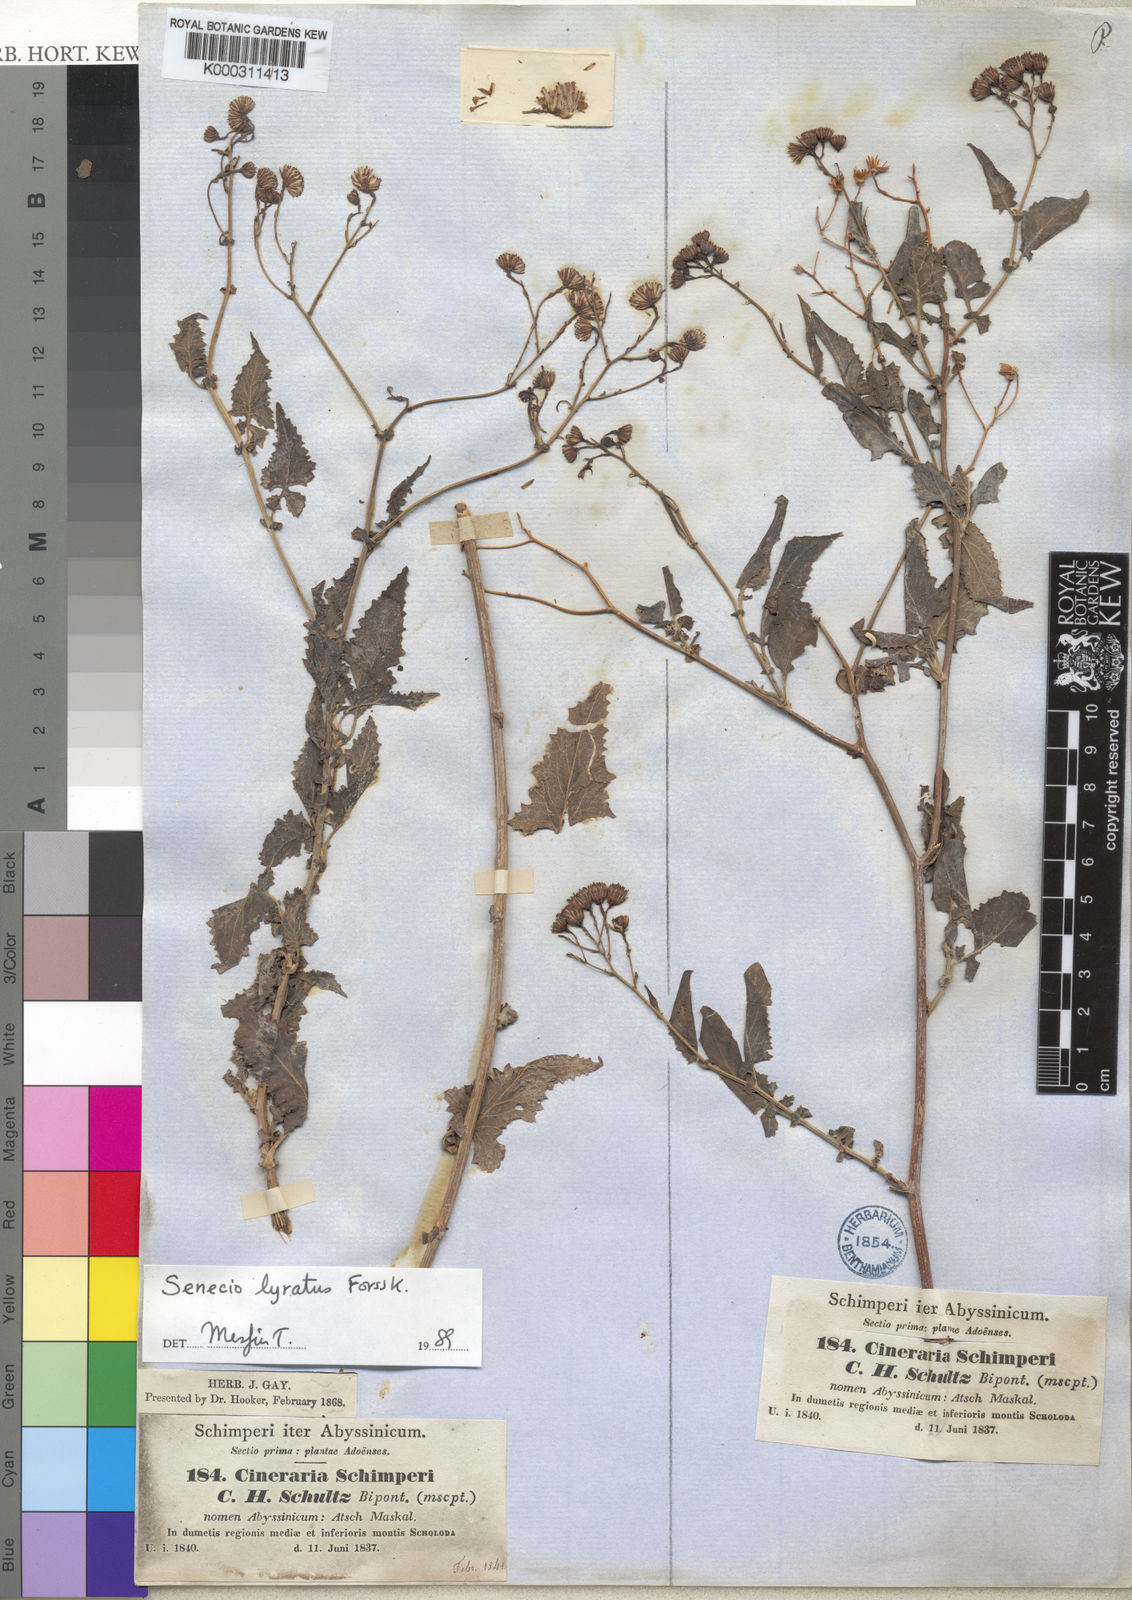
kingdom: Plantae
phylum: Tracheophyta
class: Magnoliopsida
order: Asterales
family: Asteraceae
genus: Senecio
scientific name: Senecio lyratus
